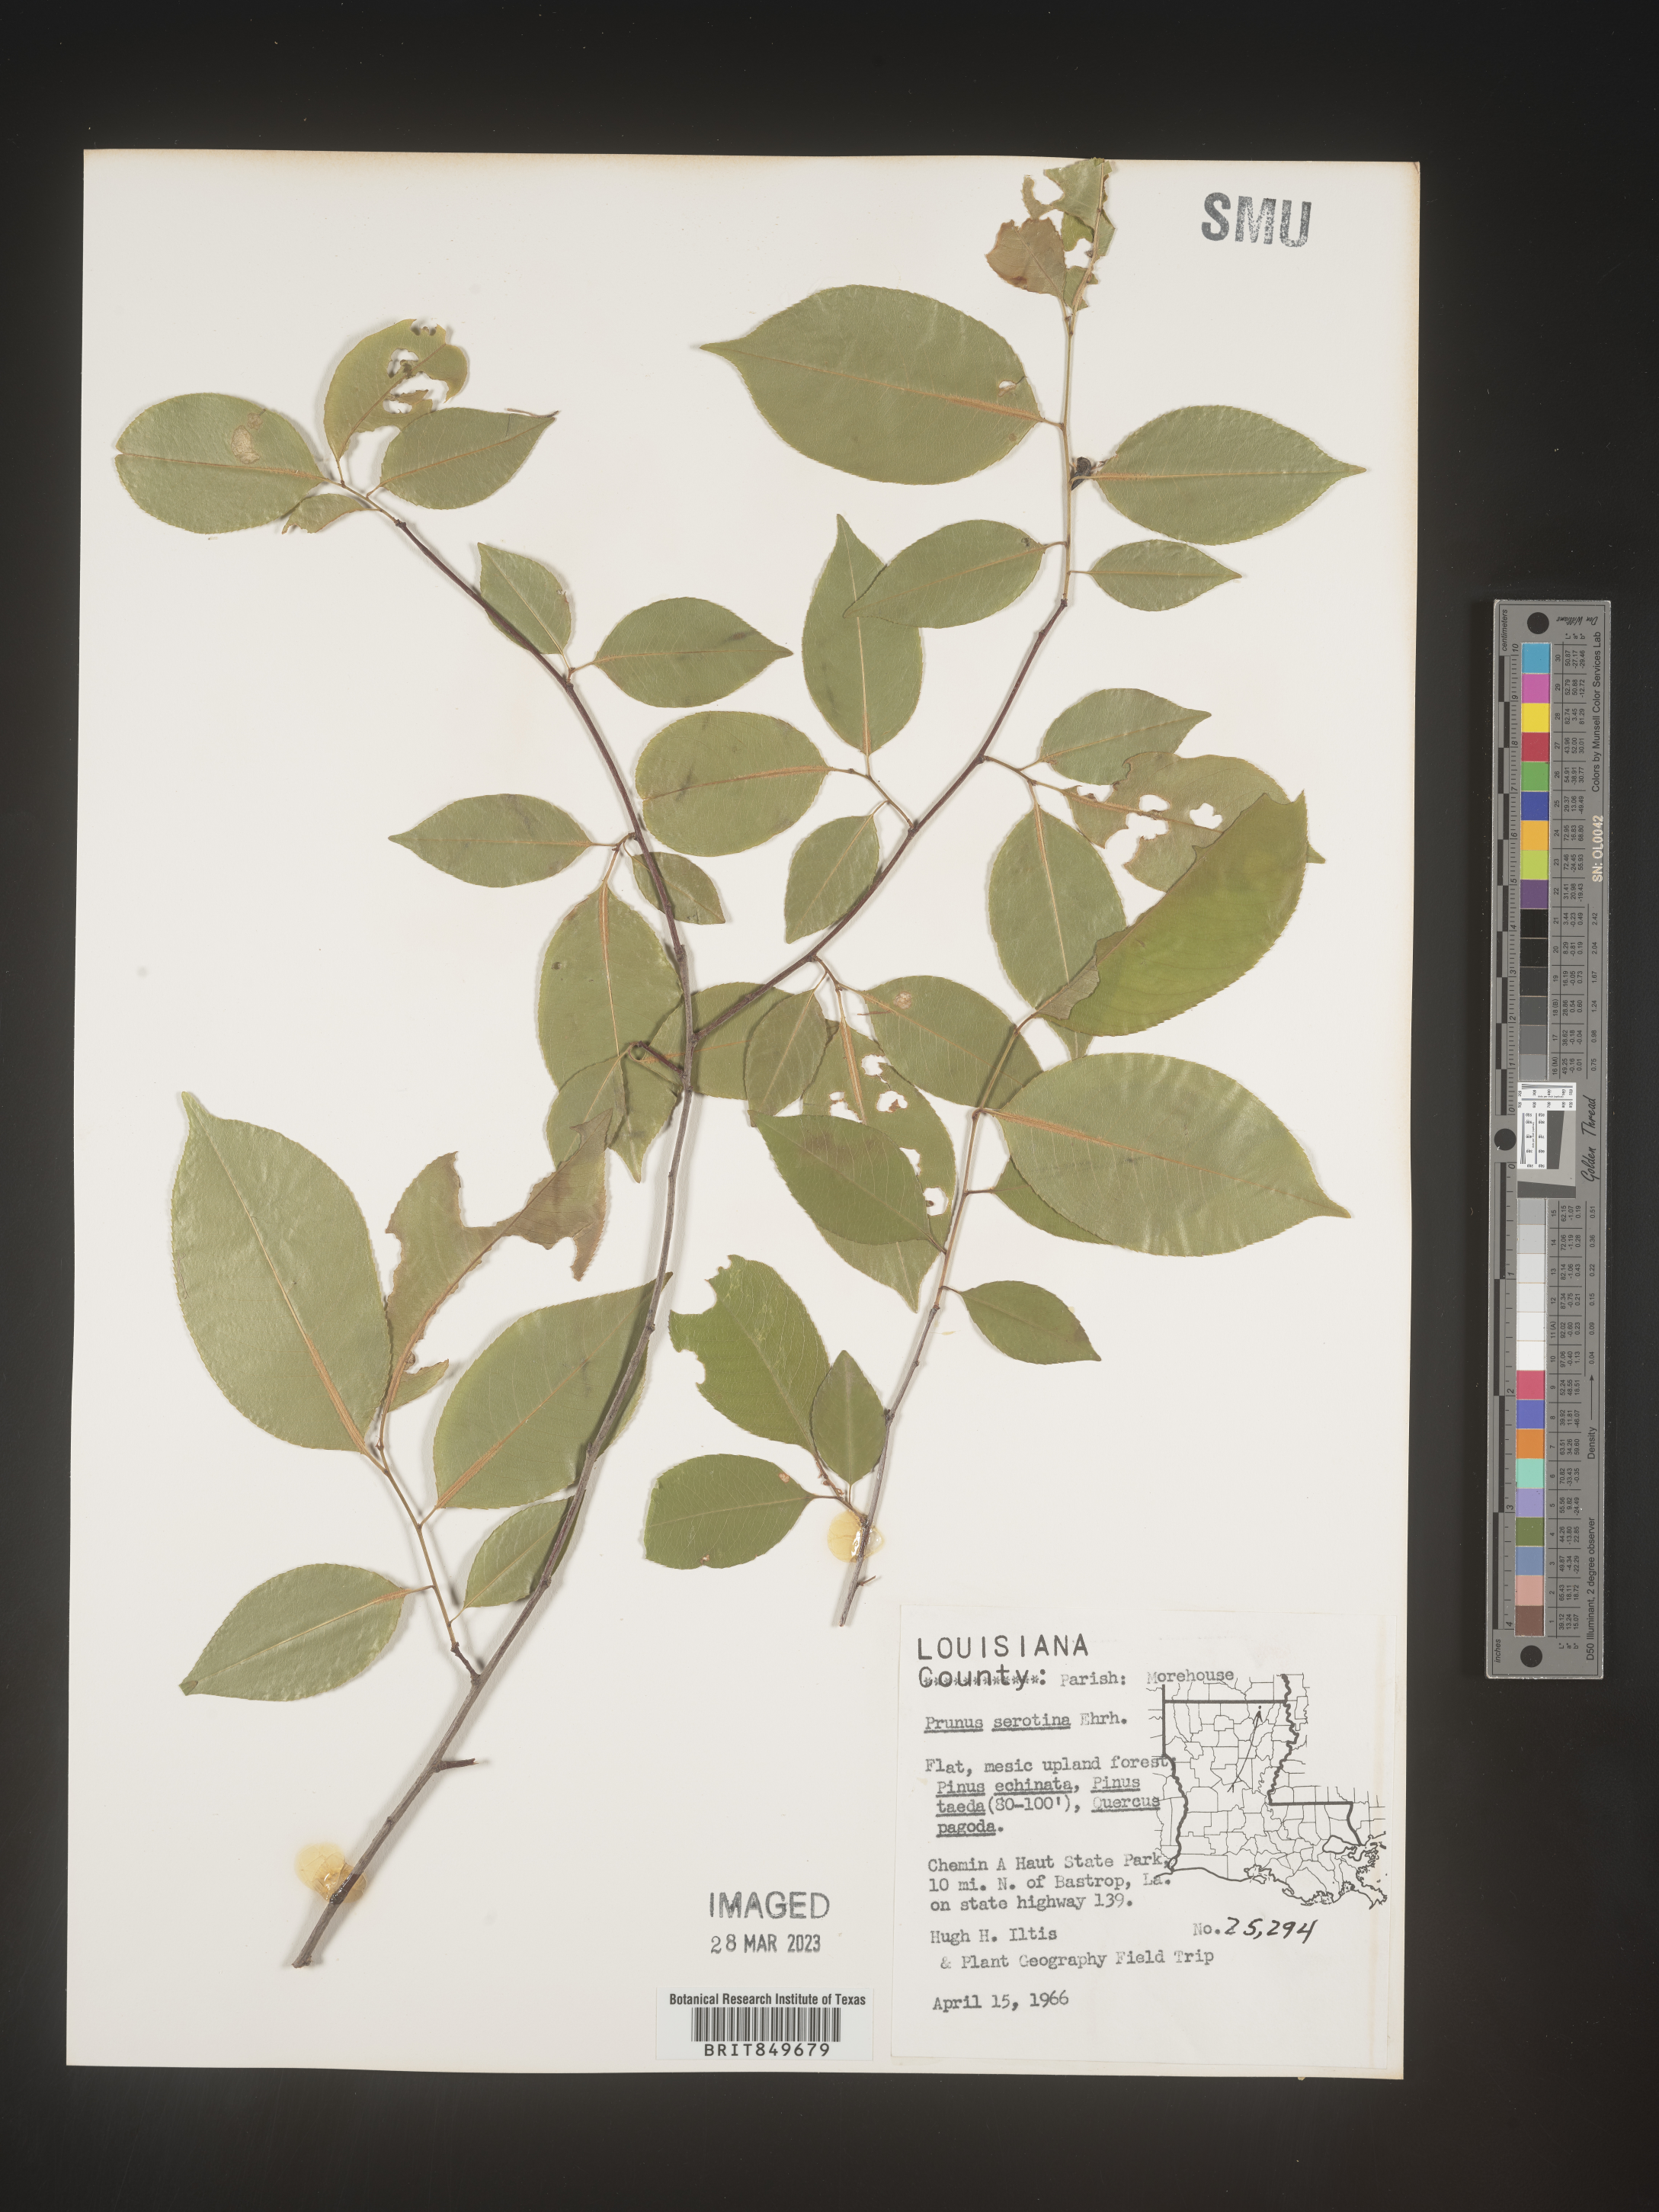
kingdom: Plantae
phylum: Tracheophyta
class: Magnoliopsida
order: Rosales
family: Rosaceae
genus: Prunus
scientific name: Prunus serotina
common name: Black cherry
